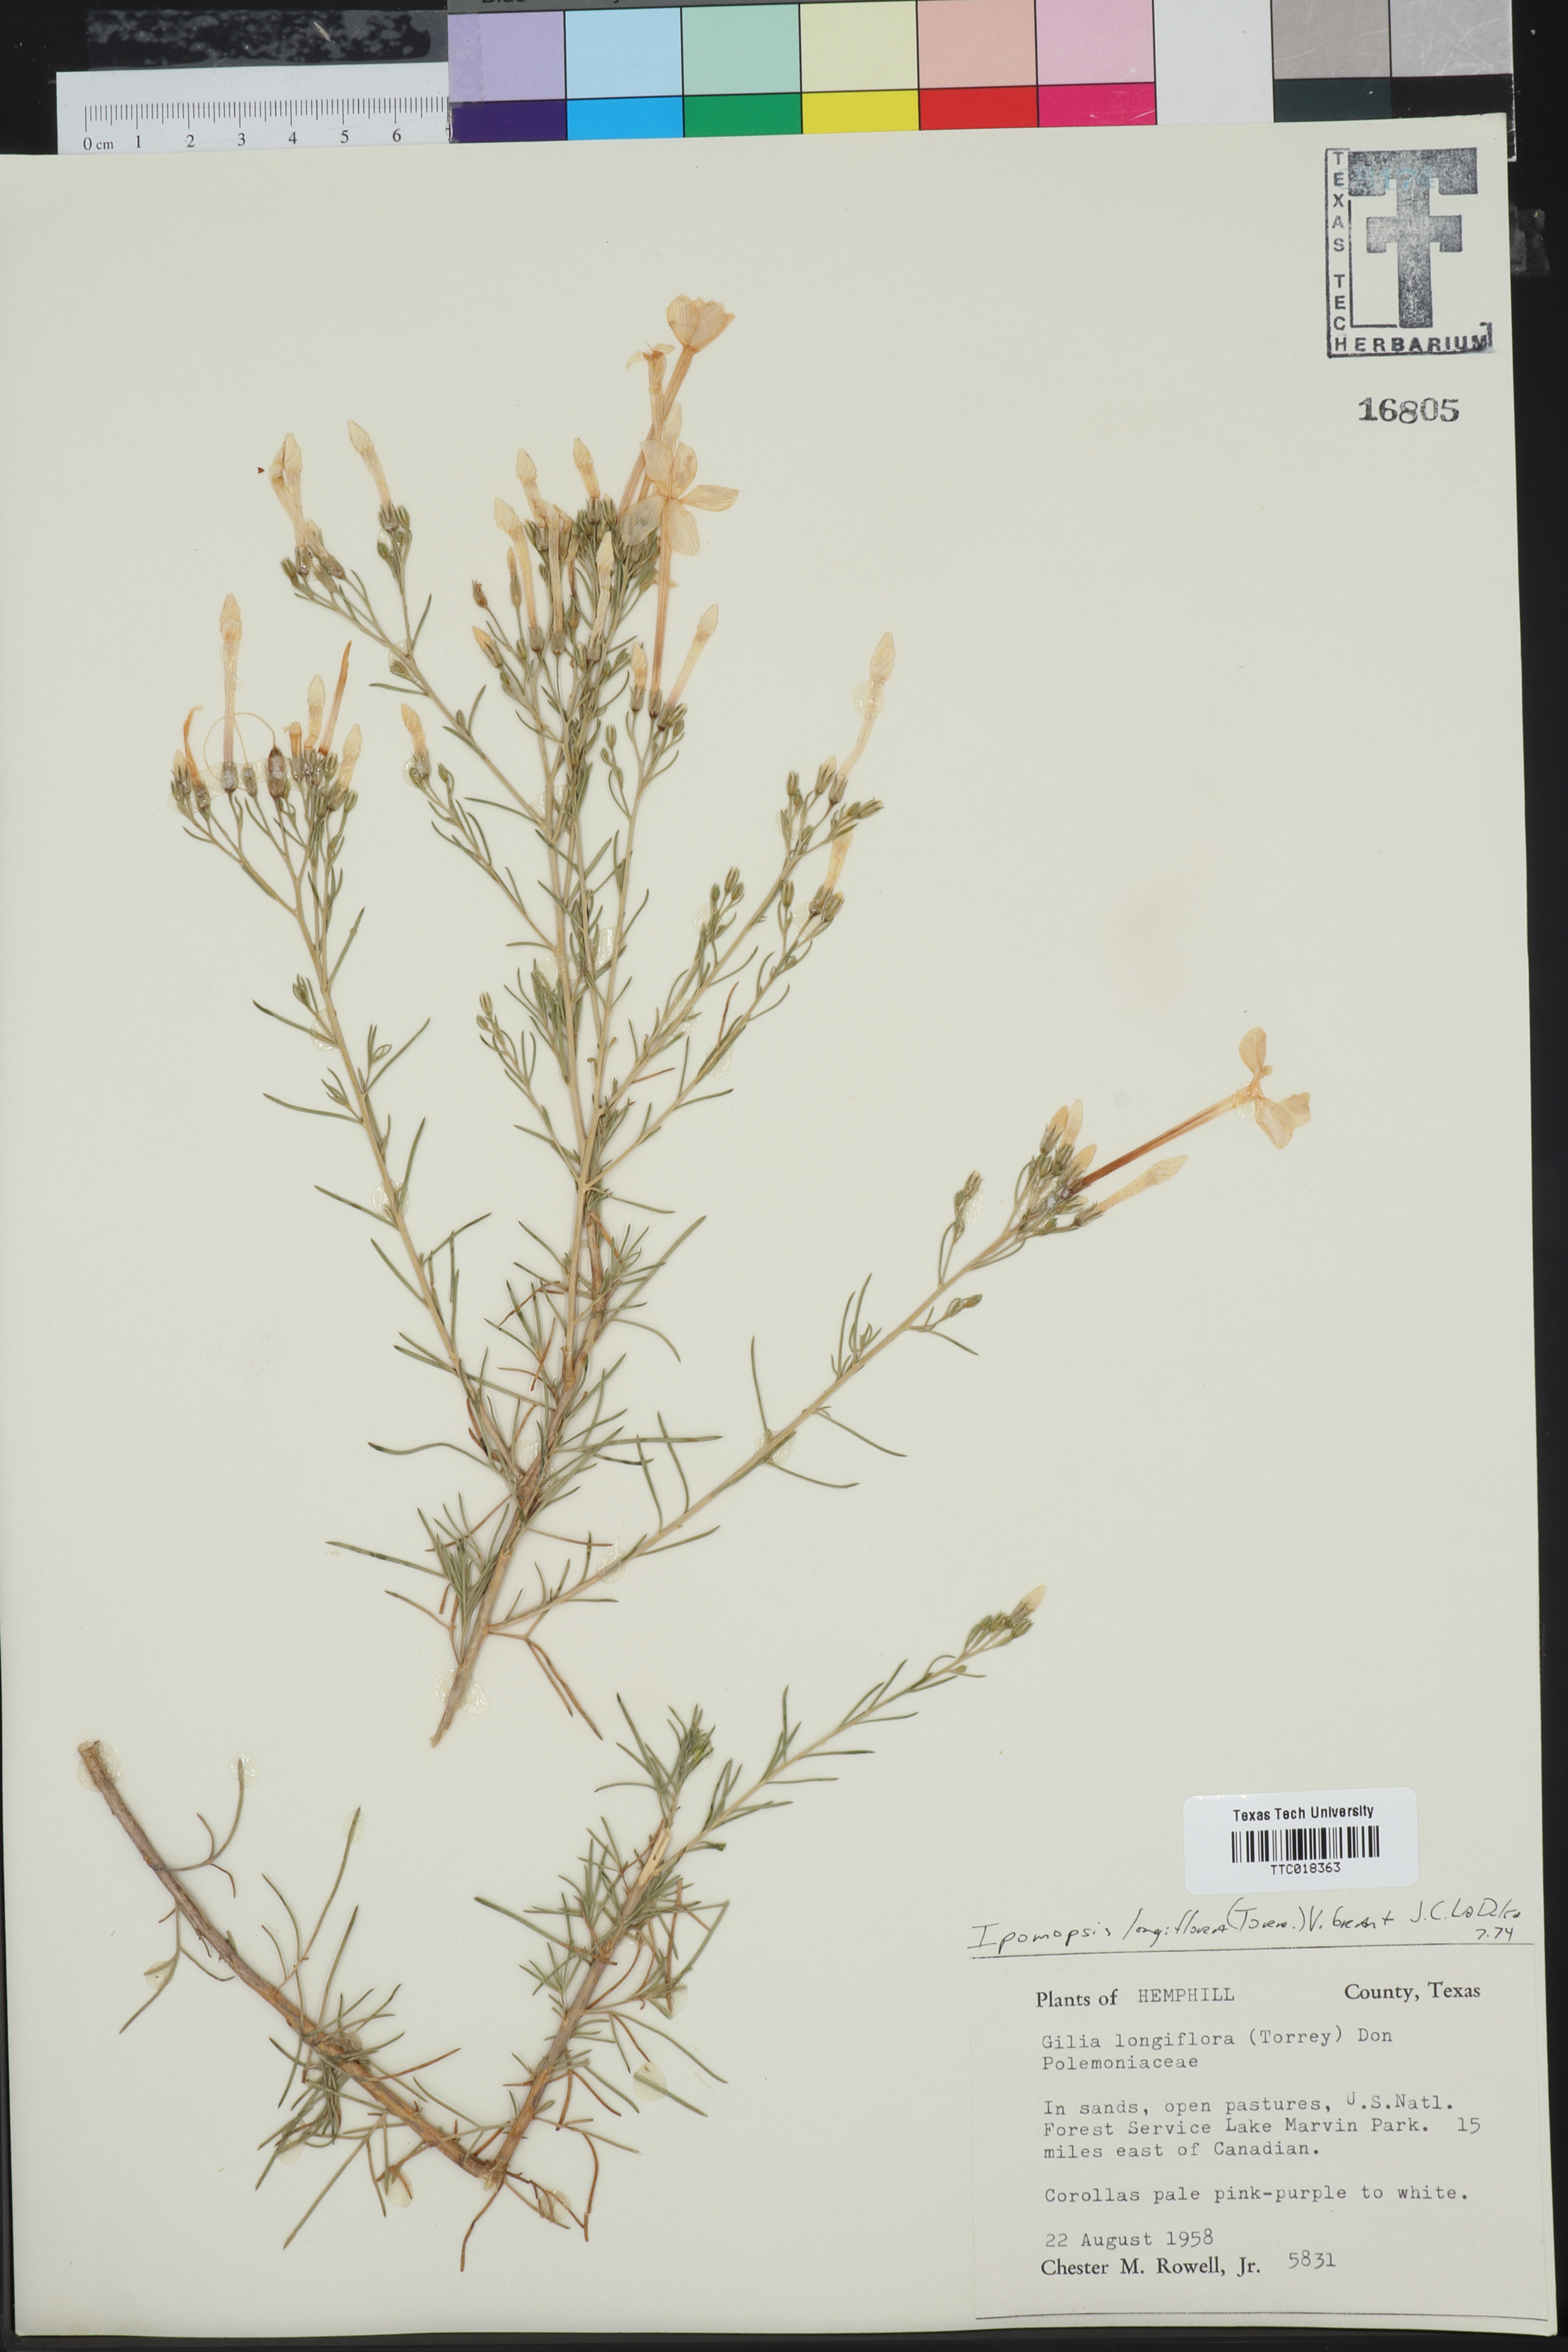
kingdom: Plantae
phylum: Tracheophyta
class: Magnoliopsida
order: Ericales
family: Polemoniaceae
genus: Ipomopsis
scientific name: Ipomopsis longiflora
